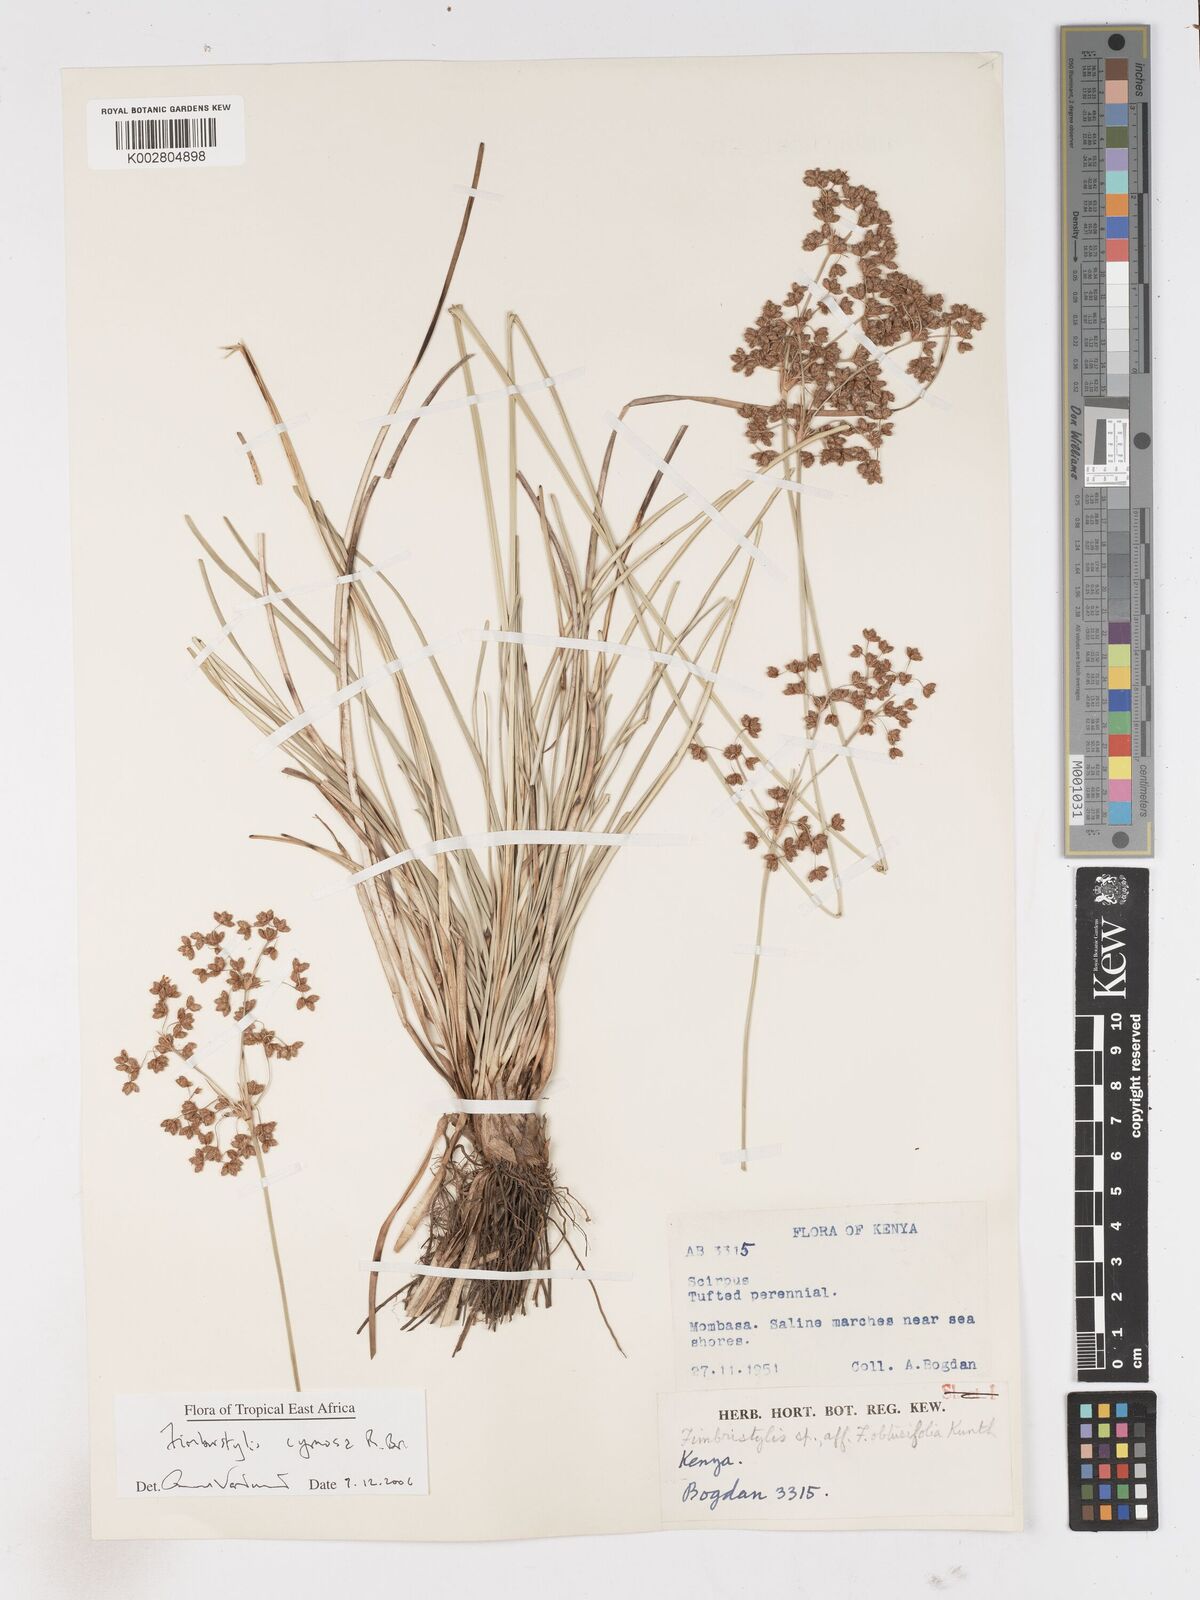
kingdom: Plantae
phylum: Tracheophyta
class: Liliopsida
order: Poales
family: Cyperaceae
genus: Fimbristylis
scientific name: Fimbristylis cymosa
